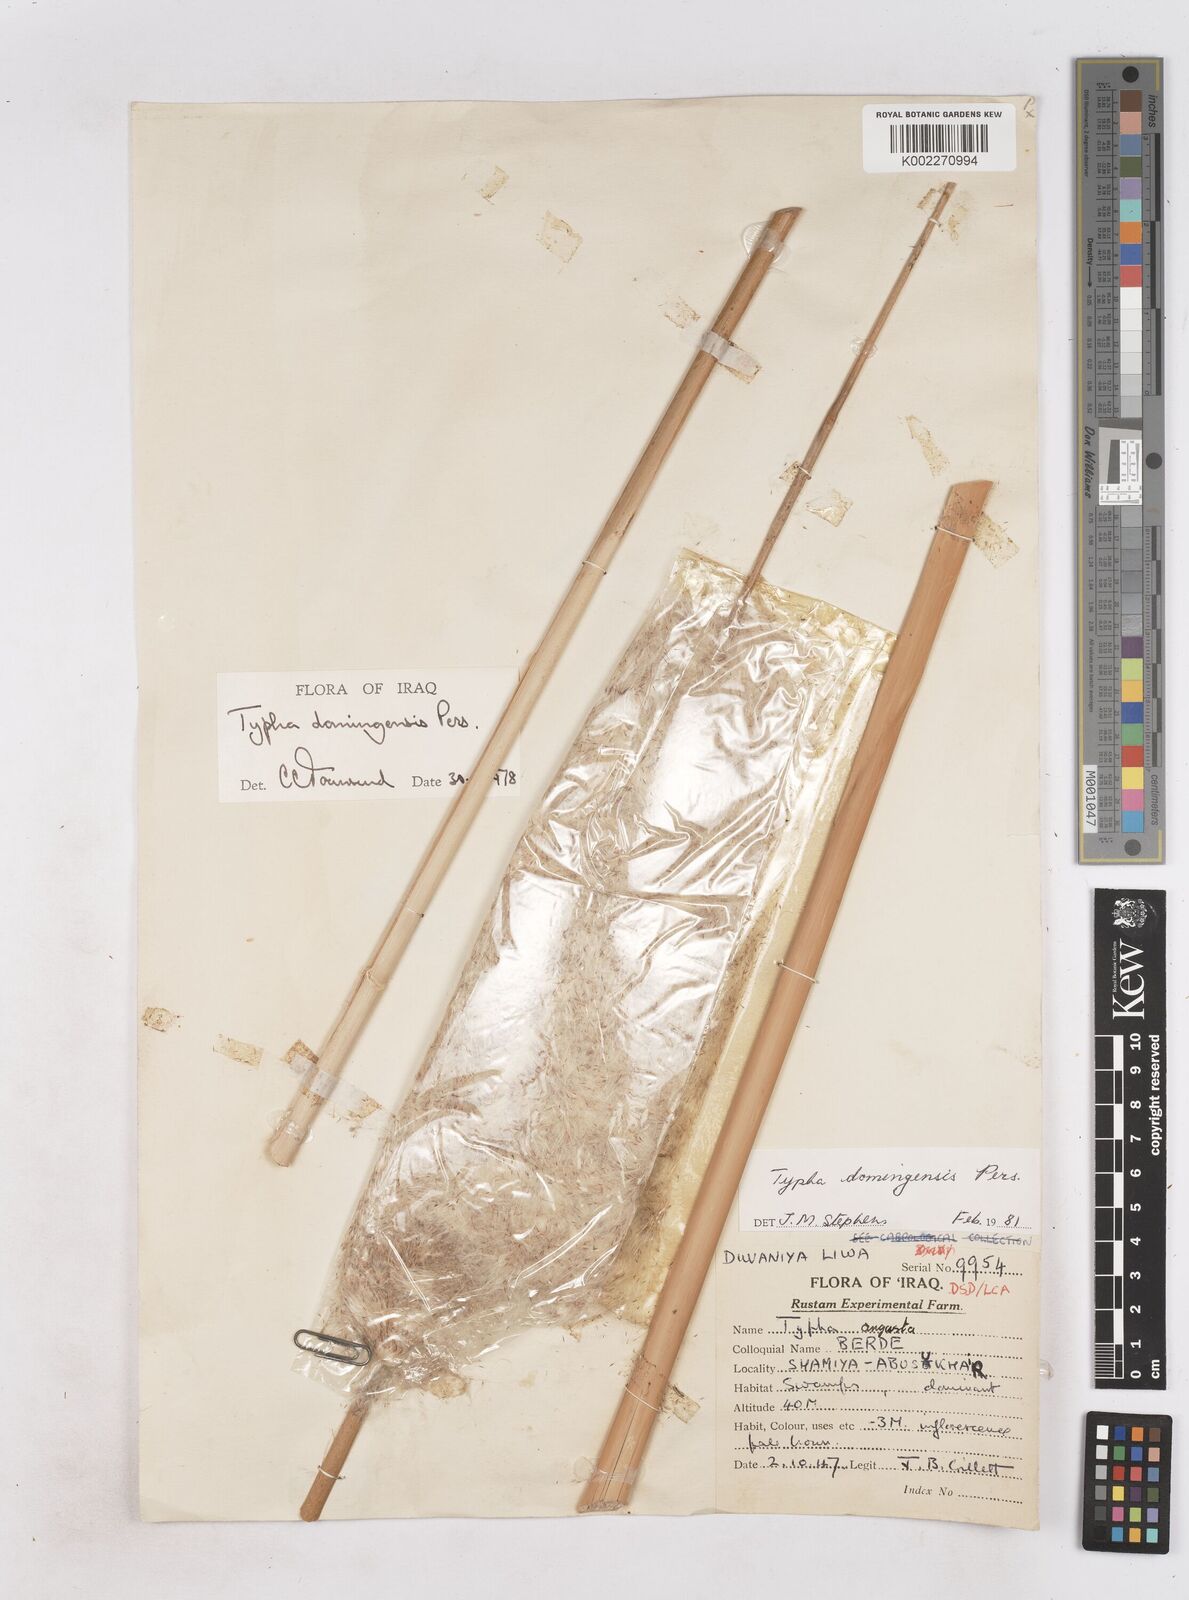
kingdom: Plantae
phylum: Tracheophyta
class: Liliopsida
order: Poales
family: Typhaceae
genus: Typha
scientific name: Typha domingensis
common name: Southern cattail
